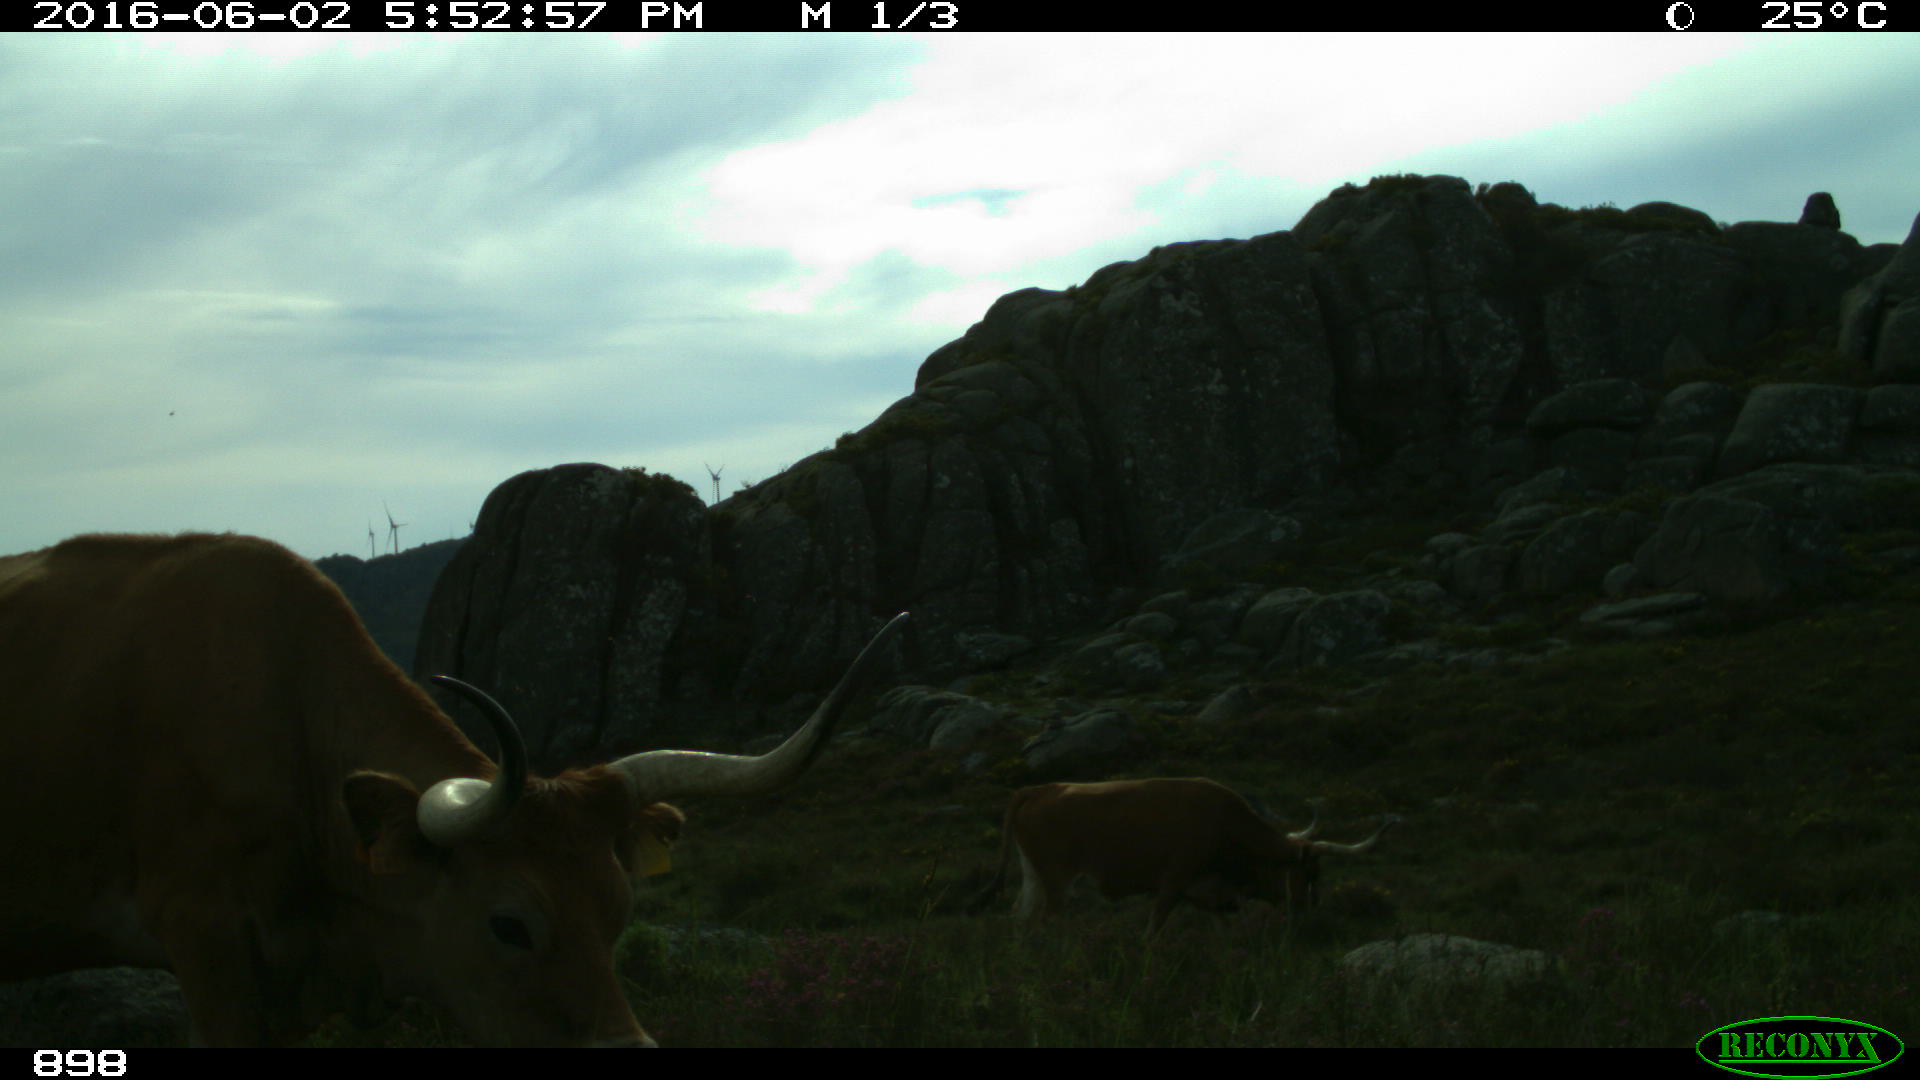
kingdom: Animalia
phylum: Chordata
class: Mammalia
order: Artiodactyla
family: Bovidae
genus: Bos
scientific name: Bos taurus
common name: Domesticated cattle
